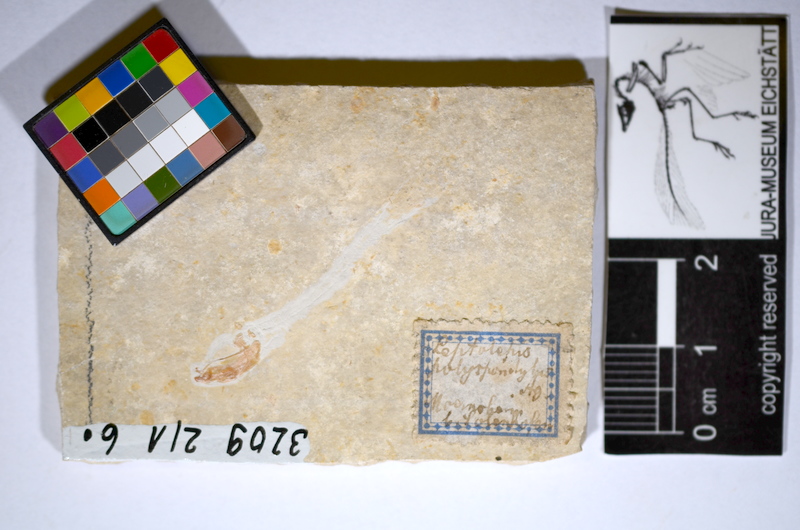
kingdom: Animalia
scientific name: Animalia
